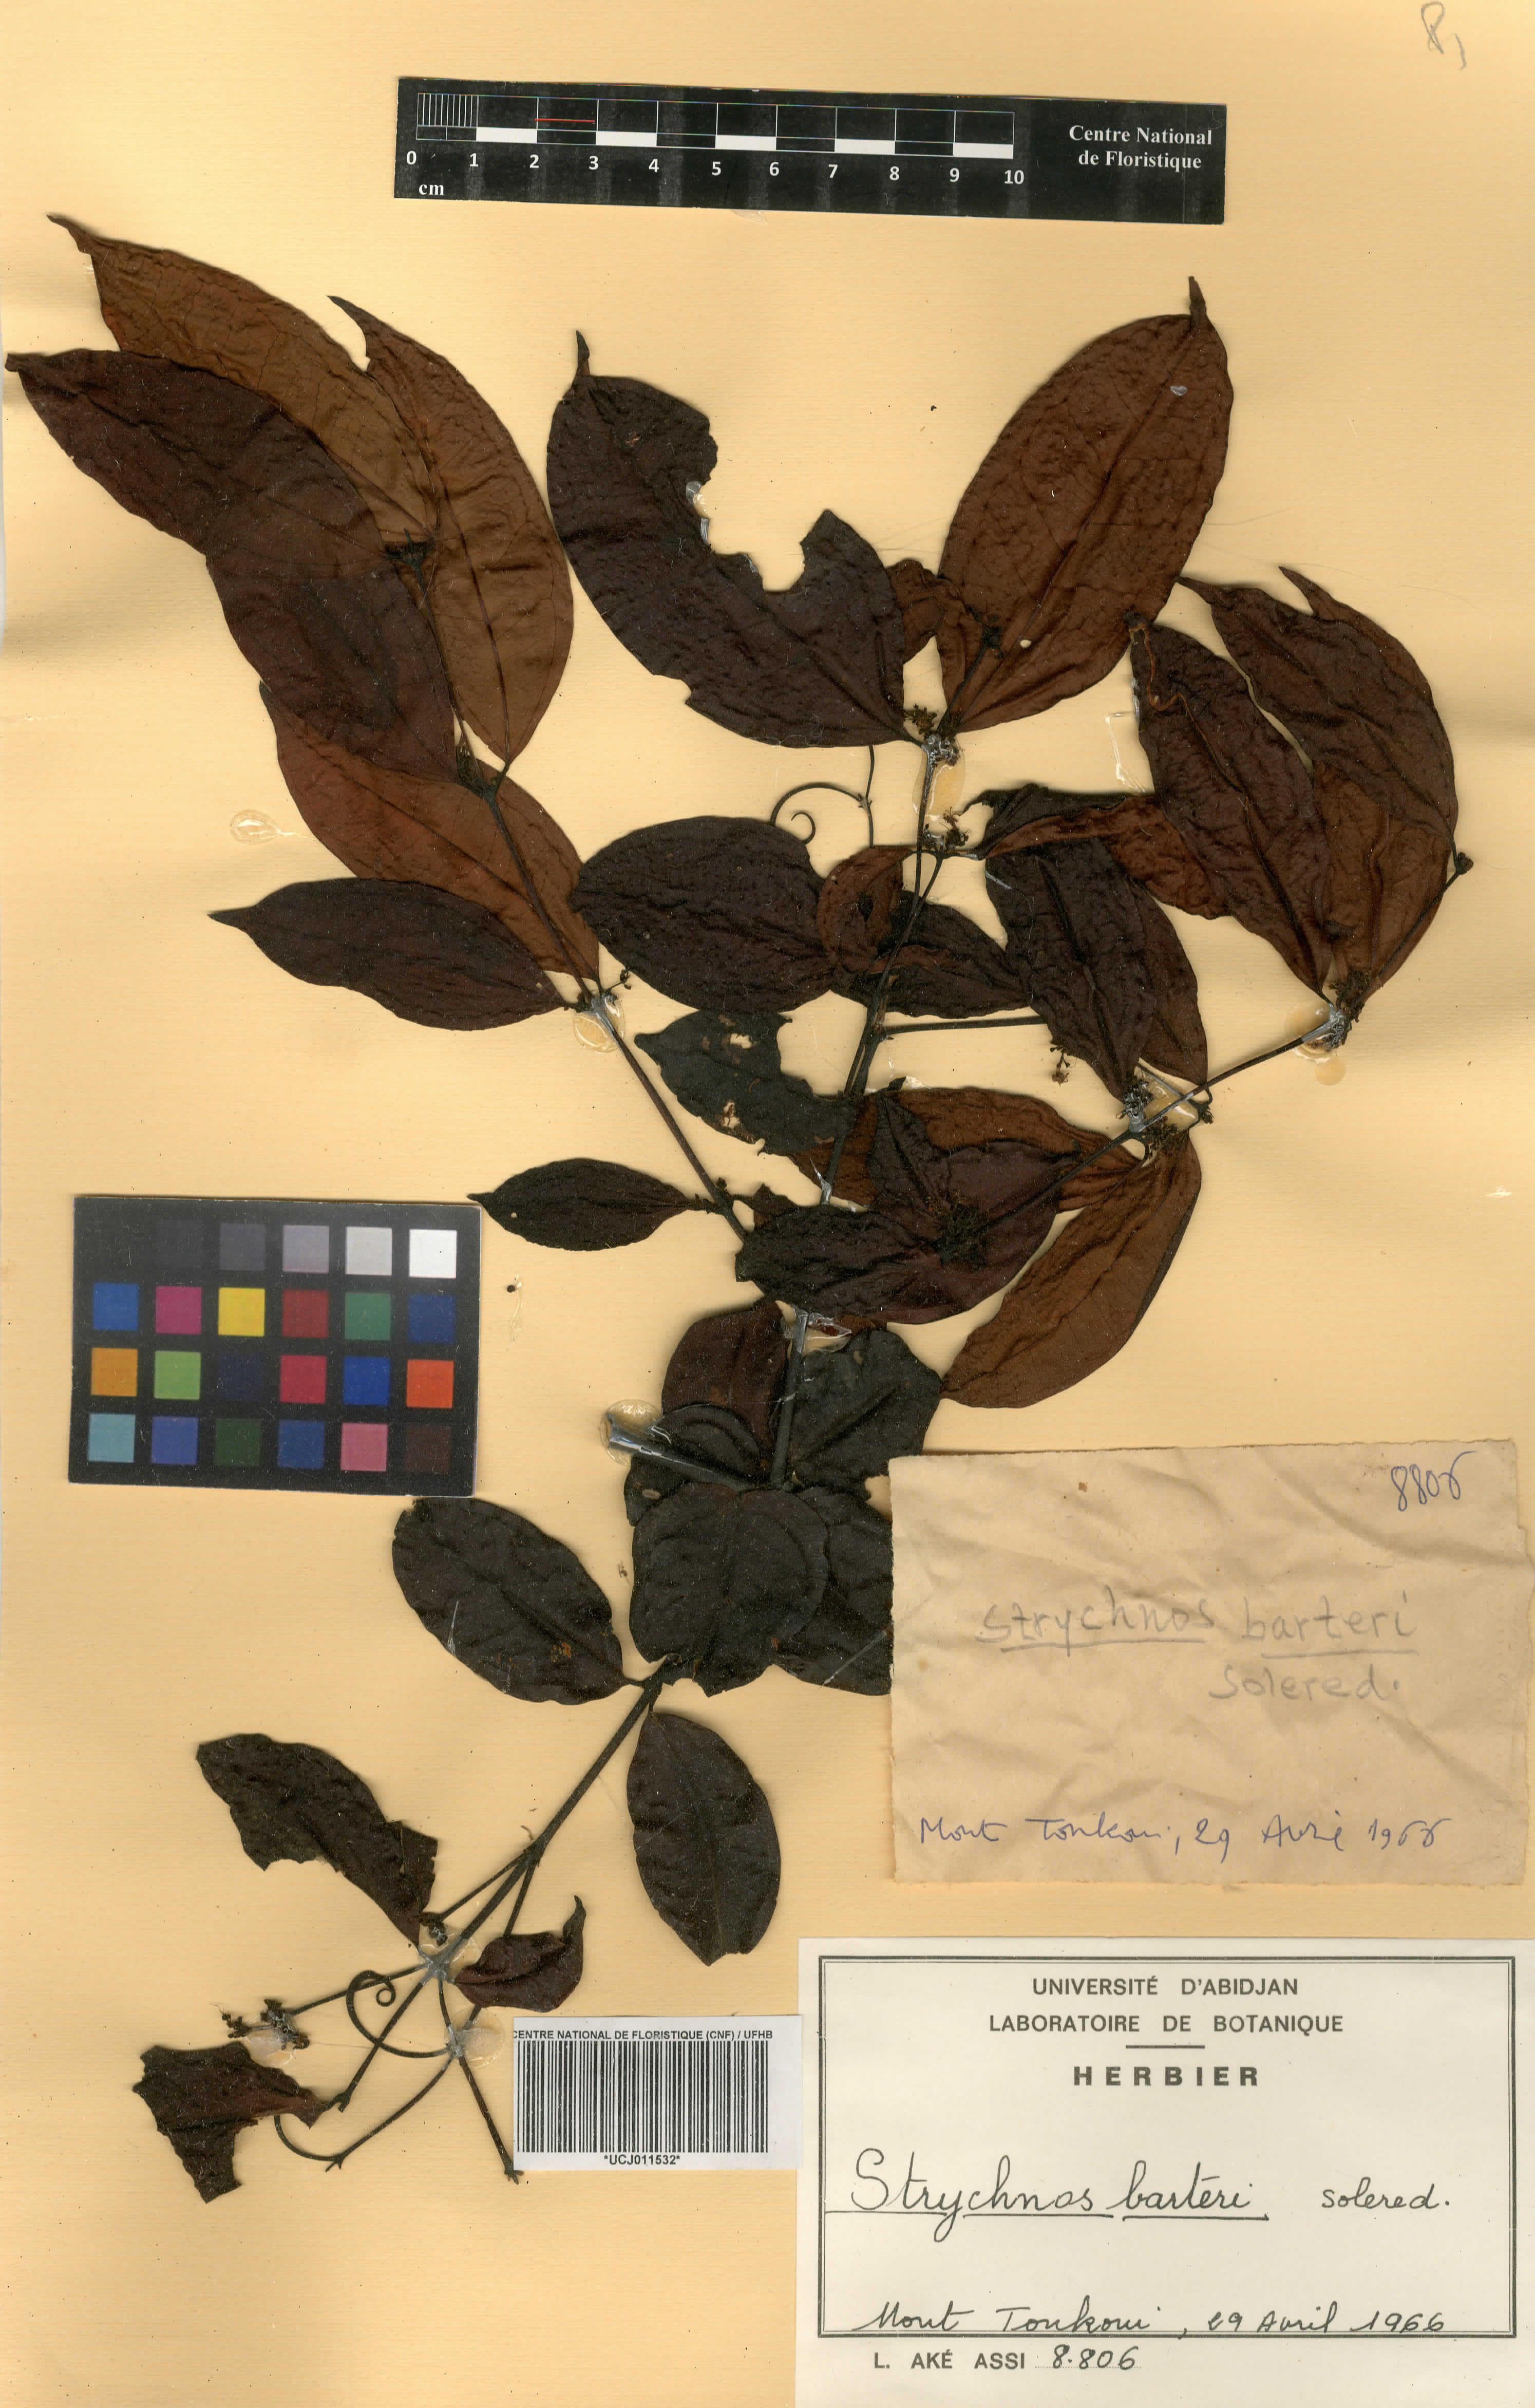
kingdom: Plantae
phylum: Tracheophyta
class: Magnoliopsida
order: Gentianales
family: Loganiaceae
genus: Strychnos
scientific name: Strychnos barteri
